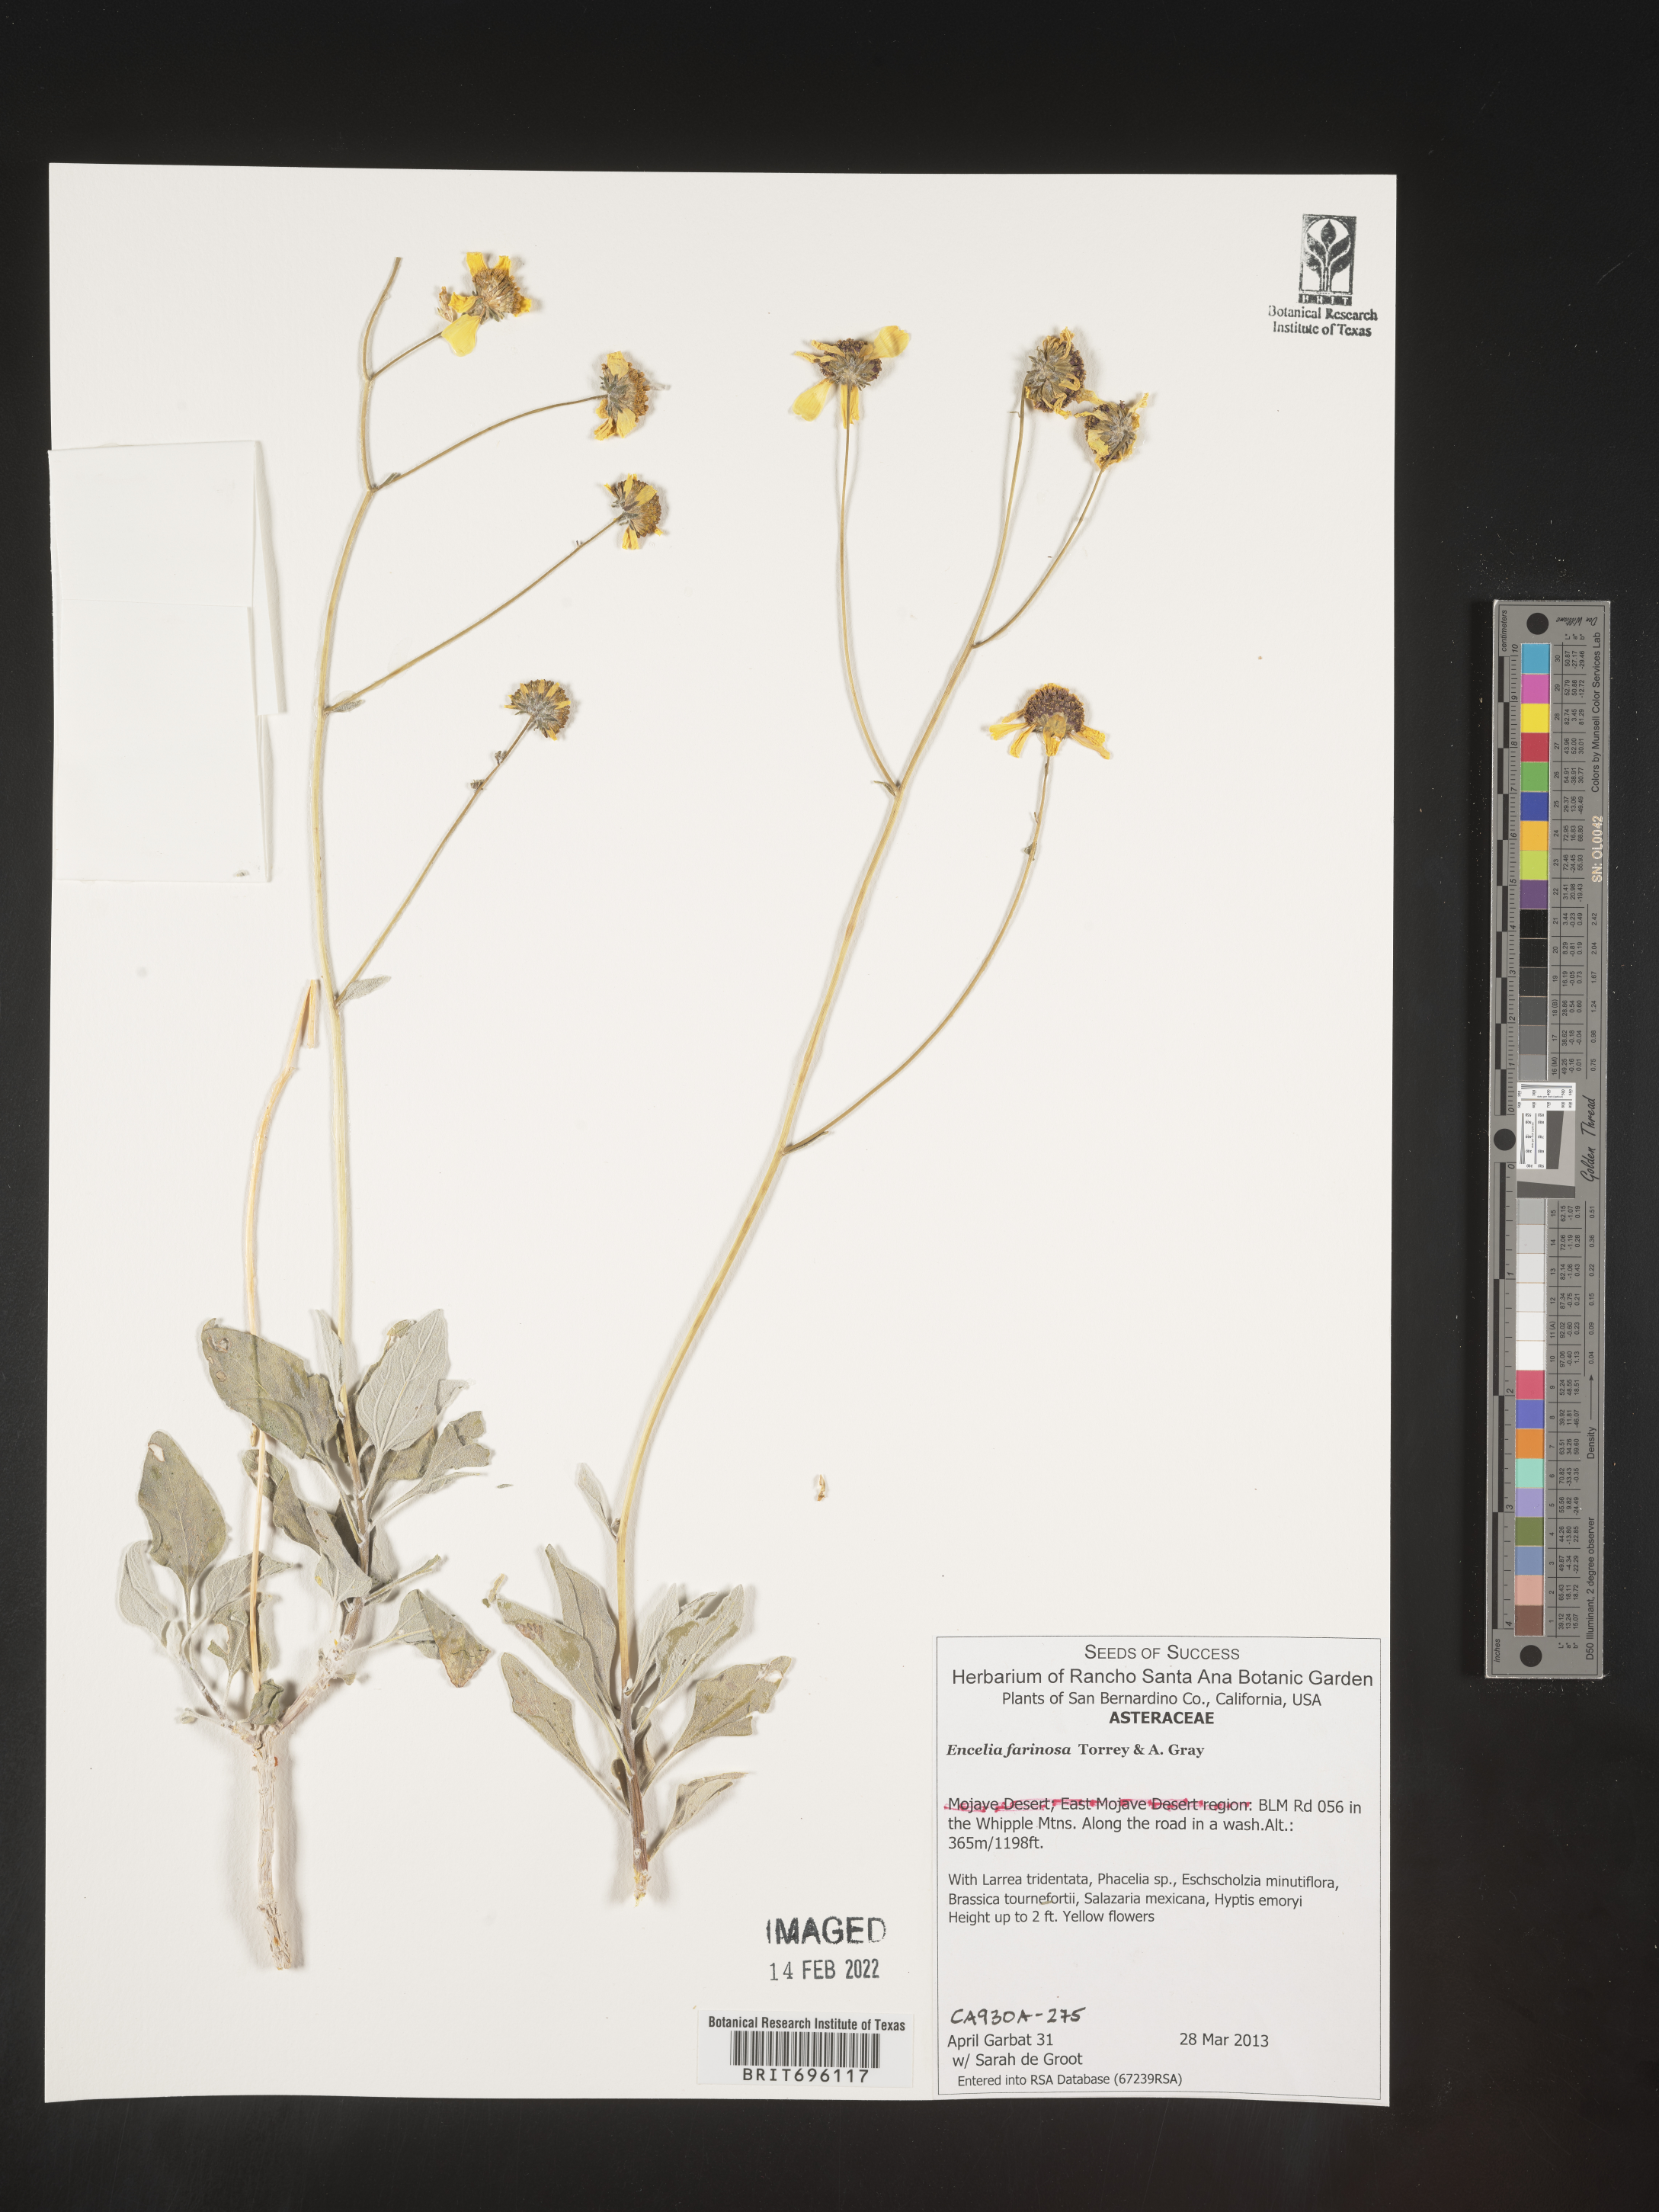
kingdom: Plantae
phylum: Tracheophyta
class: Magnoliopsida
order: Asterales
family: Asteraceae
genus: Encelia
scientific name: Encelia farinosa
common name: Brittlebush
